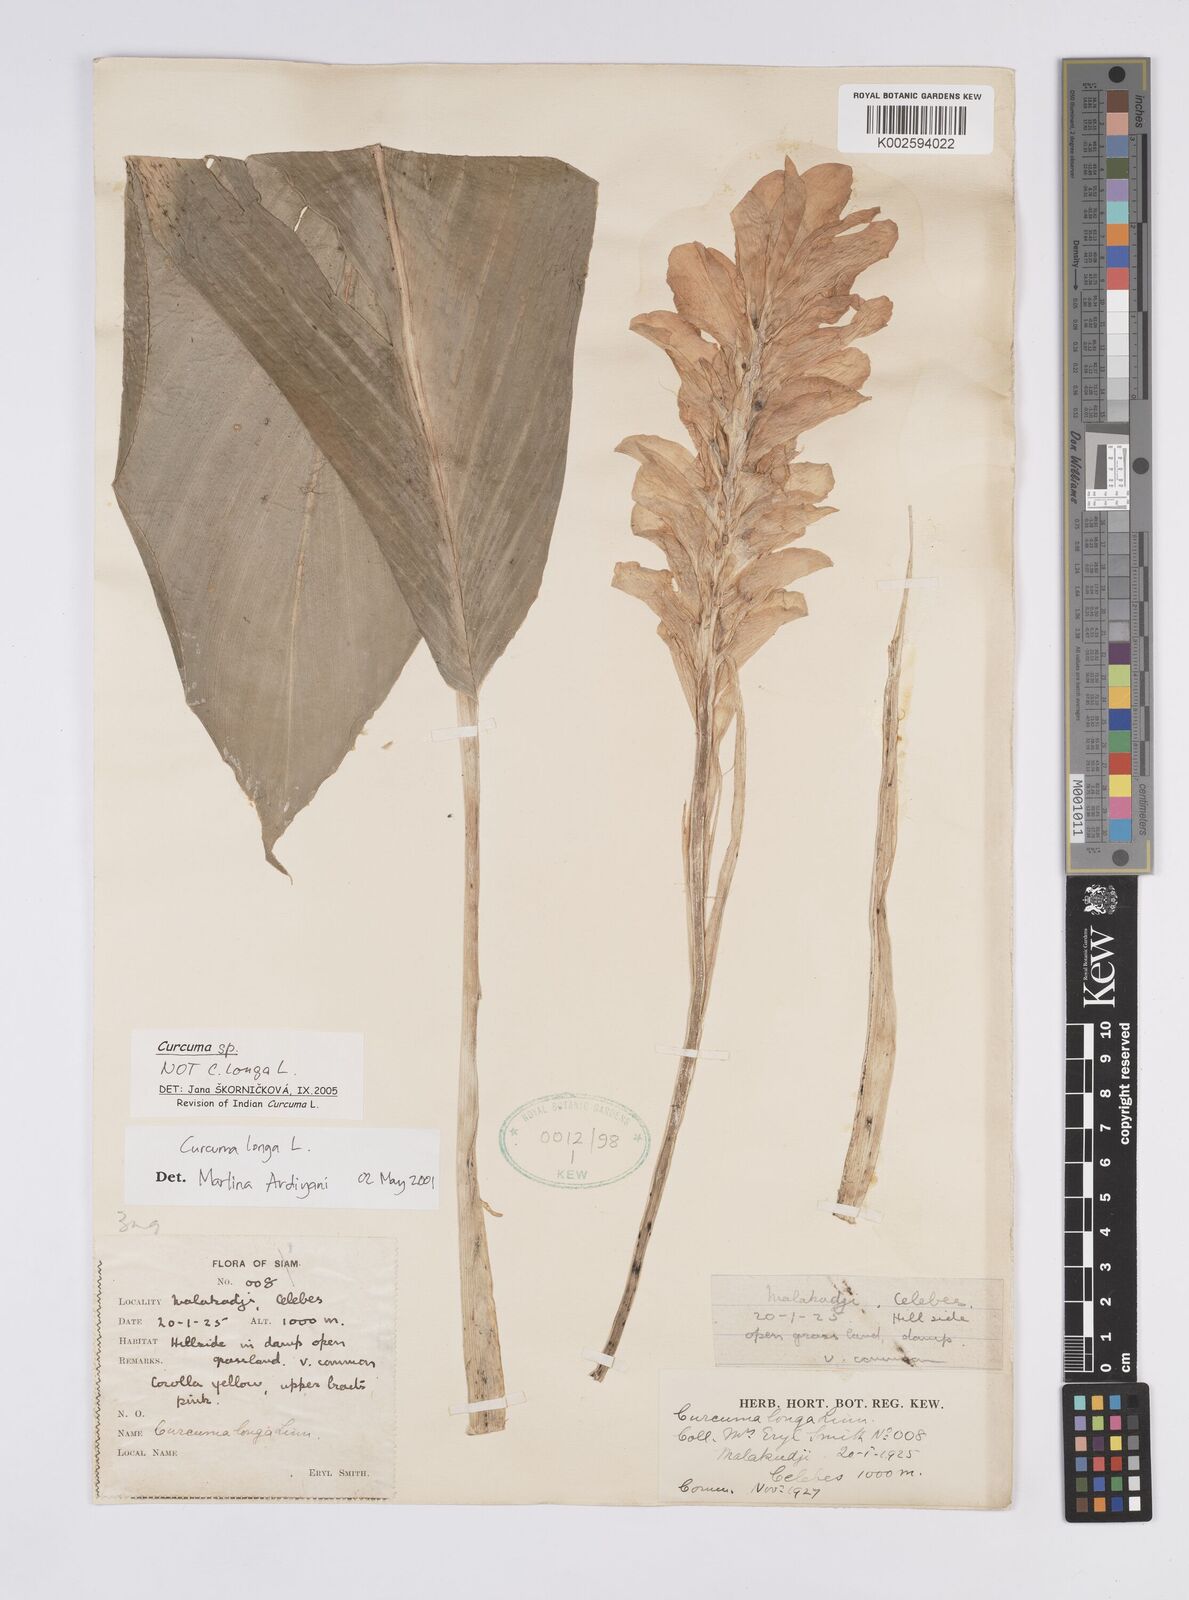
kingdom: Plantae
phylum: Tracheophyta
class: Liliopsida
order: Zingiberales
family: Zingiberaceae
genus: Curcuma
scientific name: Curcuma
